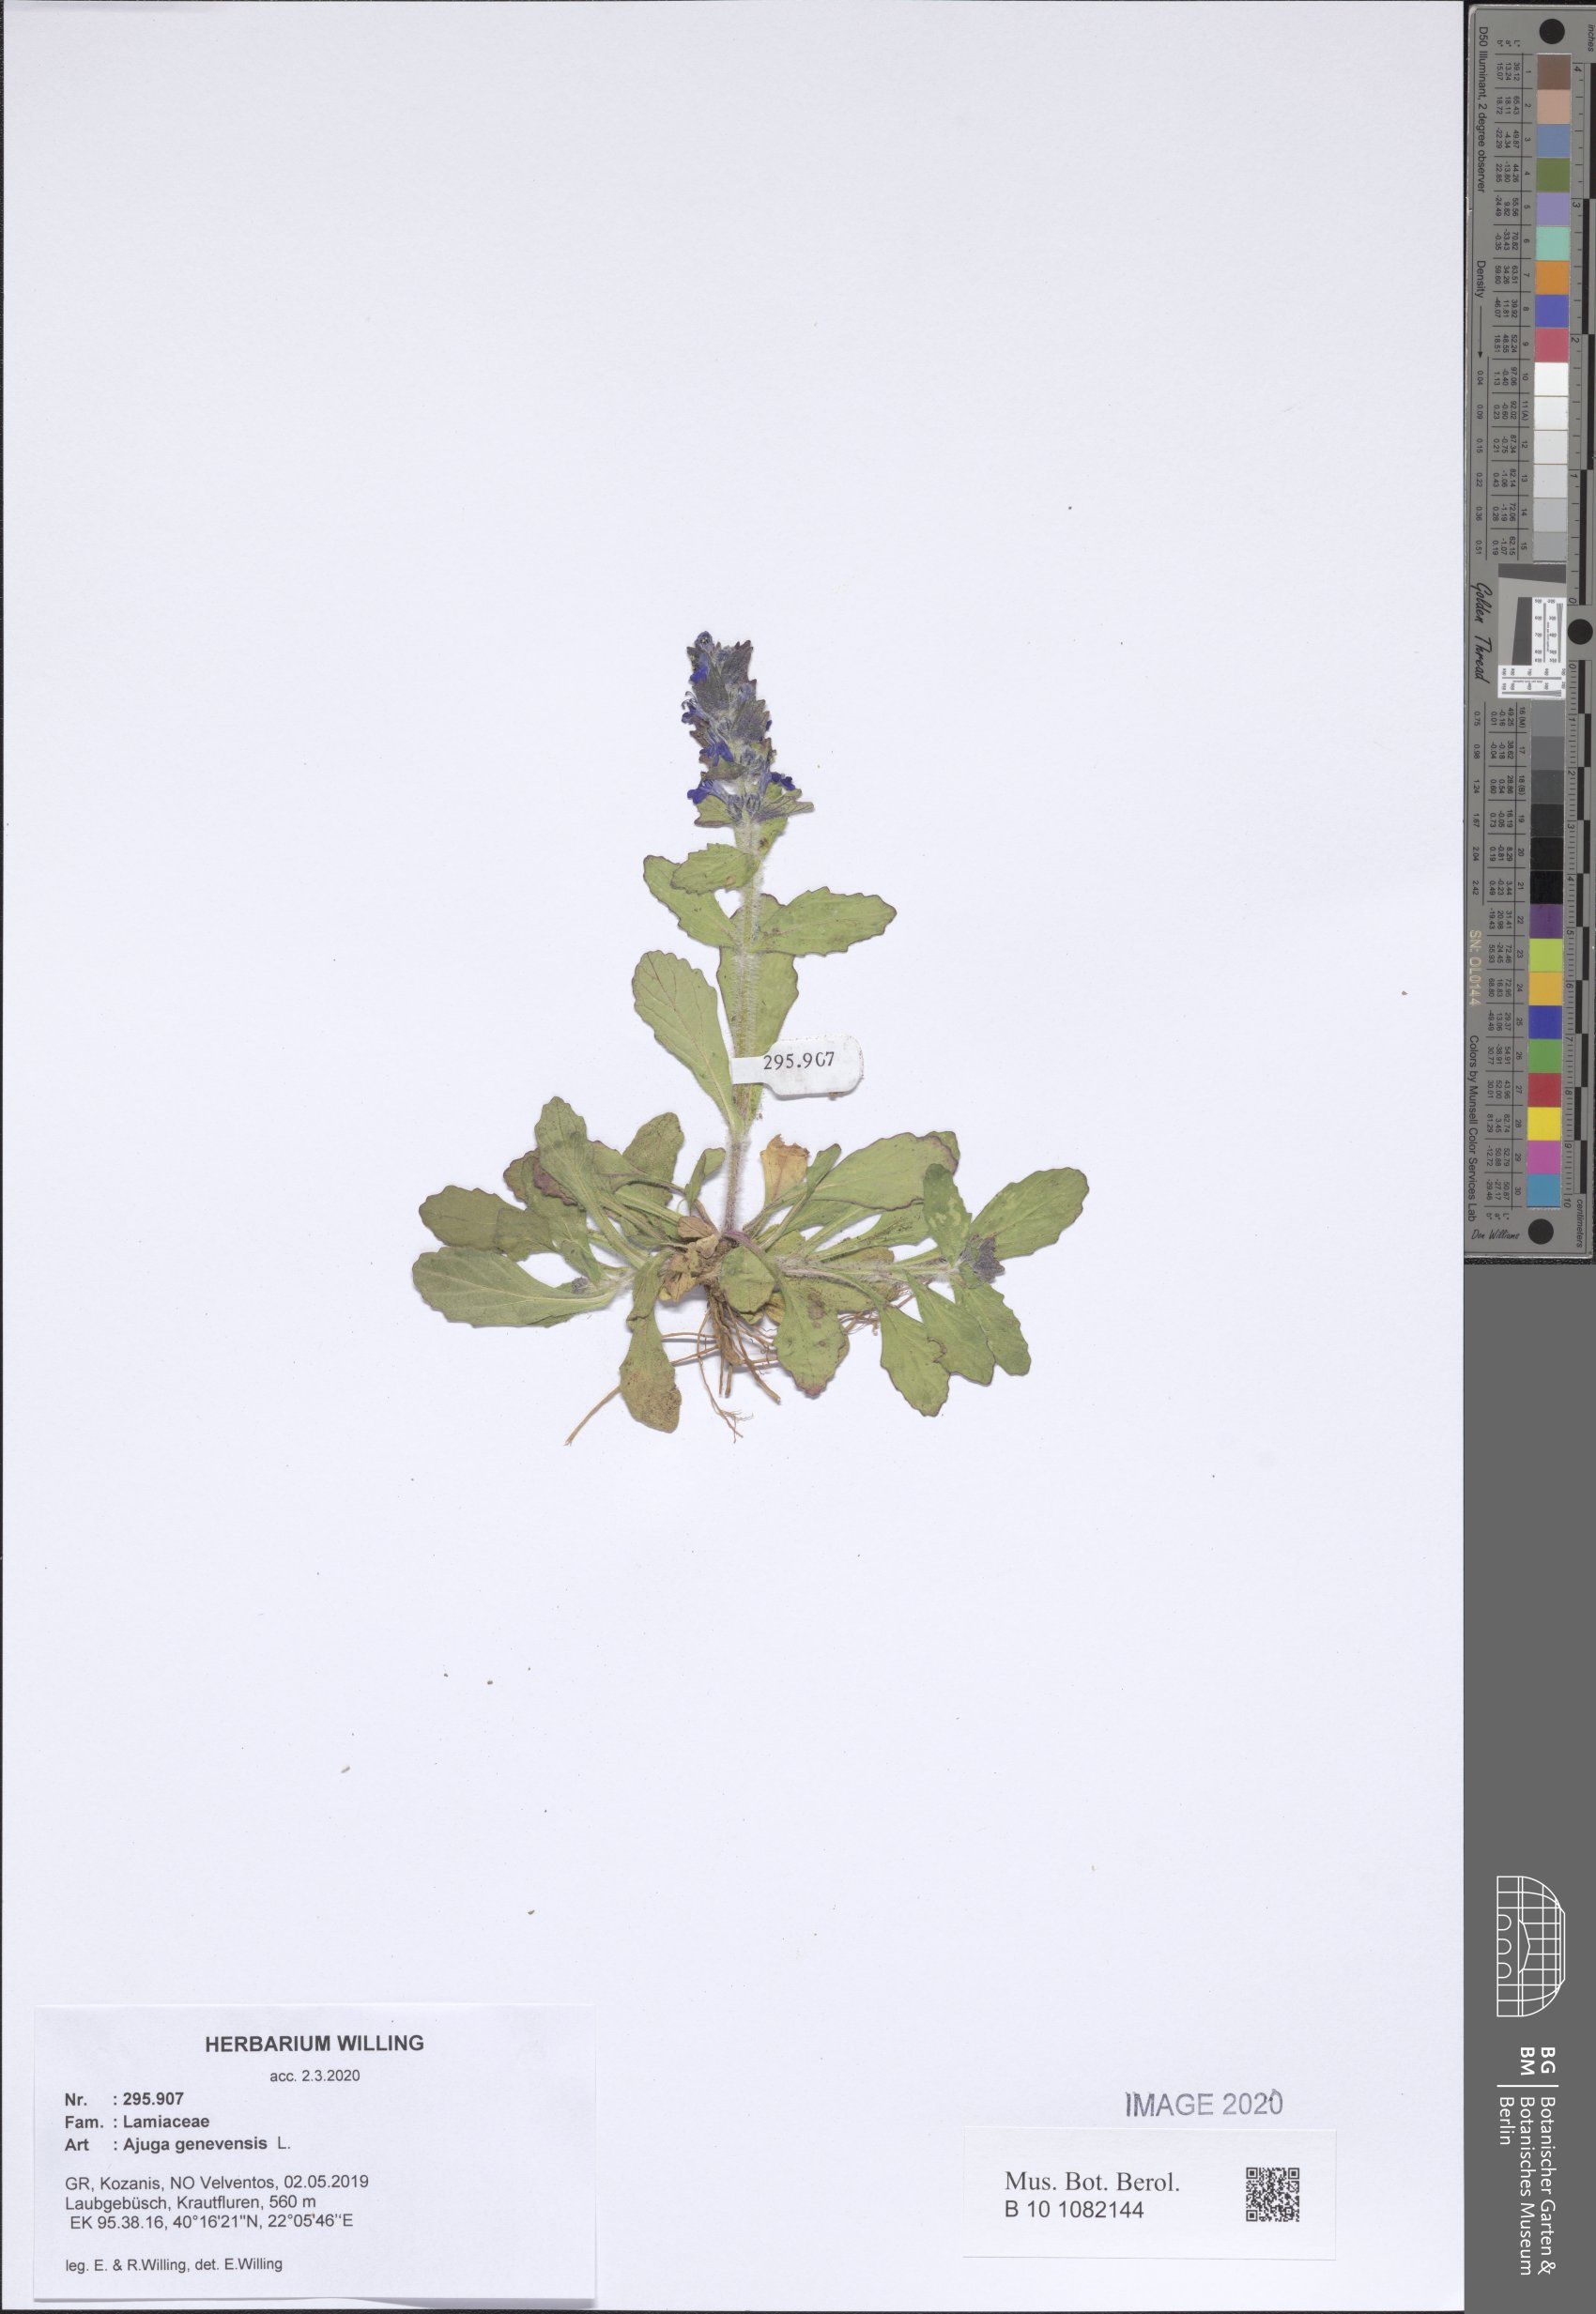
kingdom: Plantae
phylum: Tracheophyta
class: Magnoliopsida
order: Lamiales
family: Lamiaceae
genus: Ajuga
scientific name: Ajuga genevensis
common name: Blue bugle
